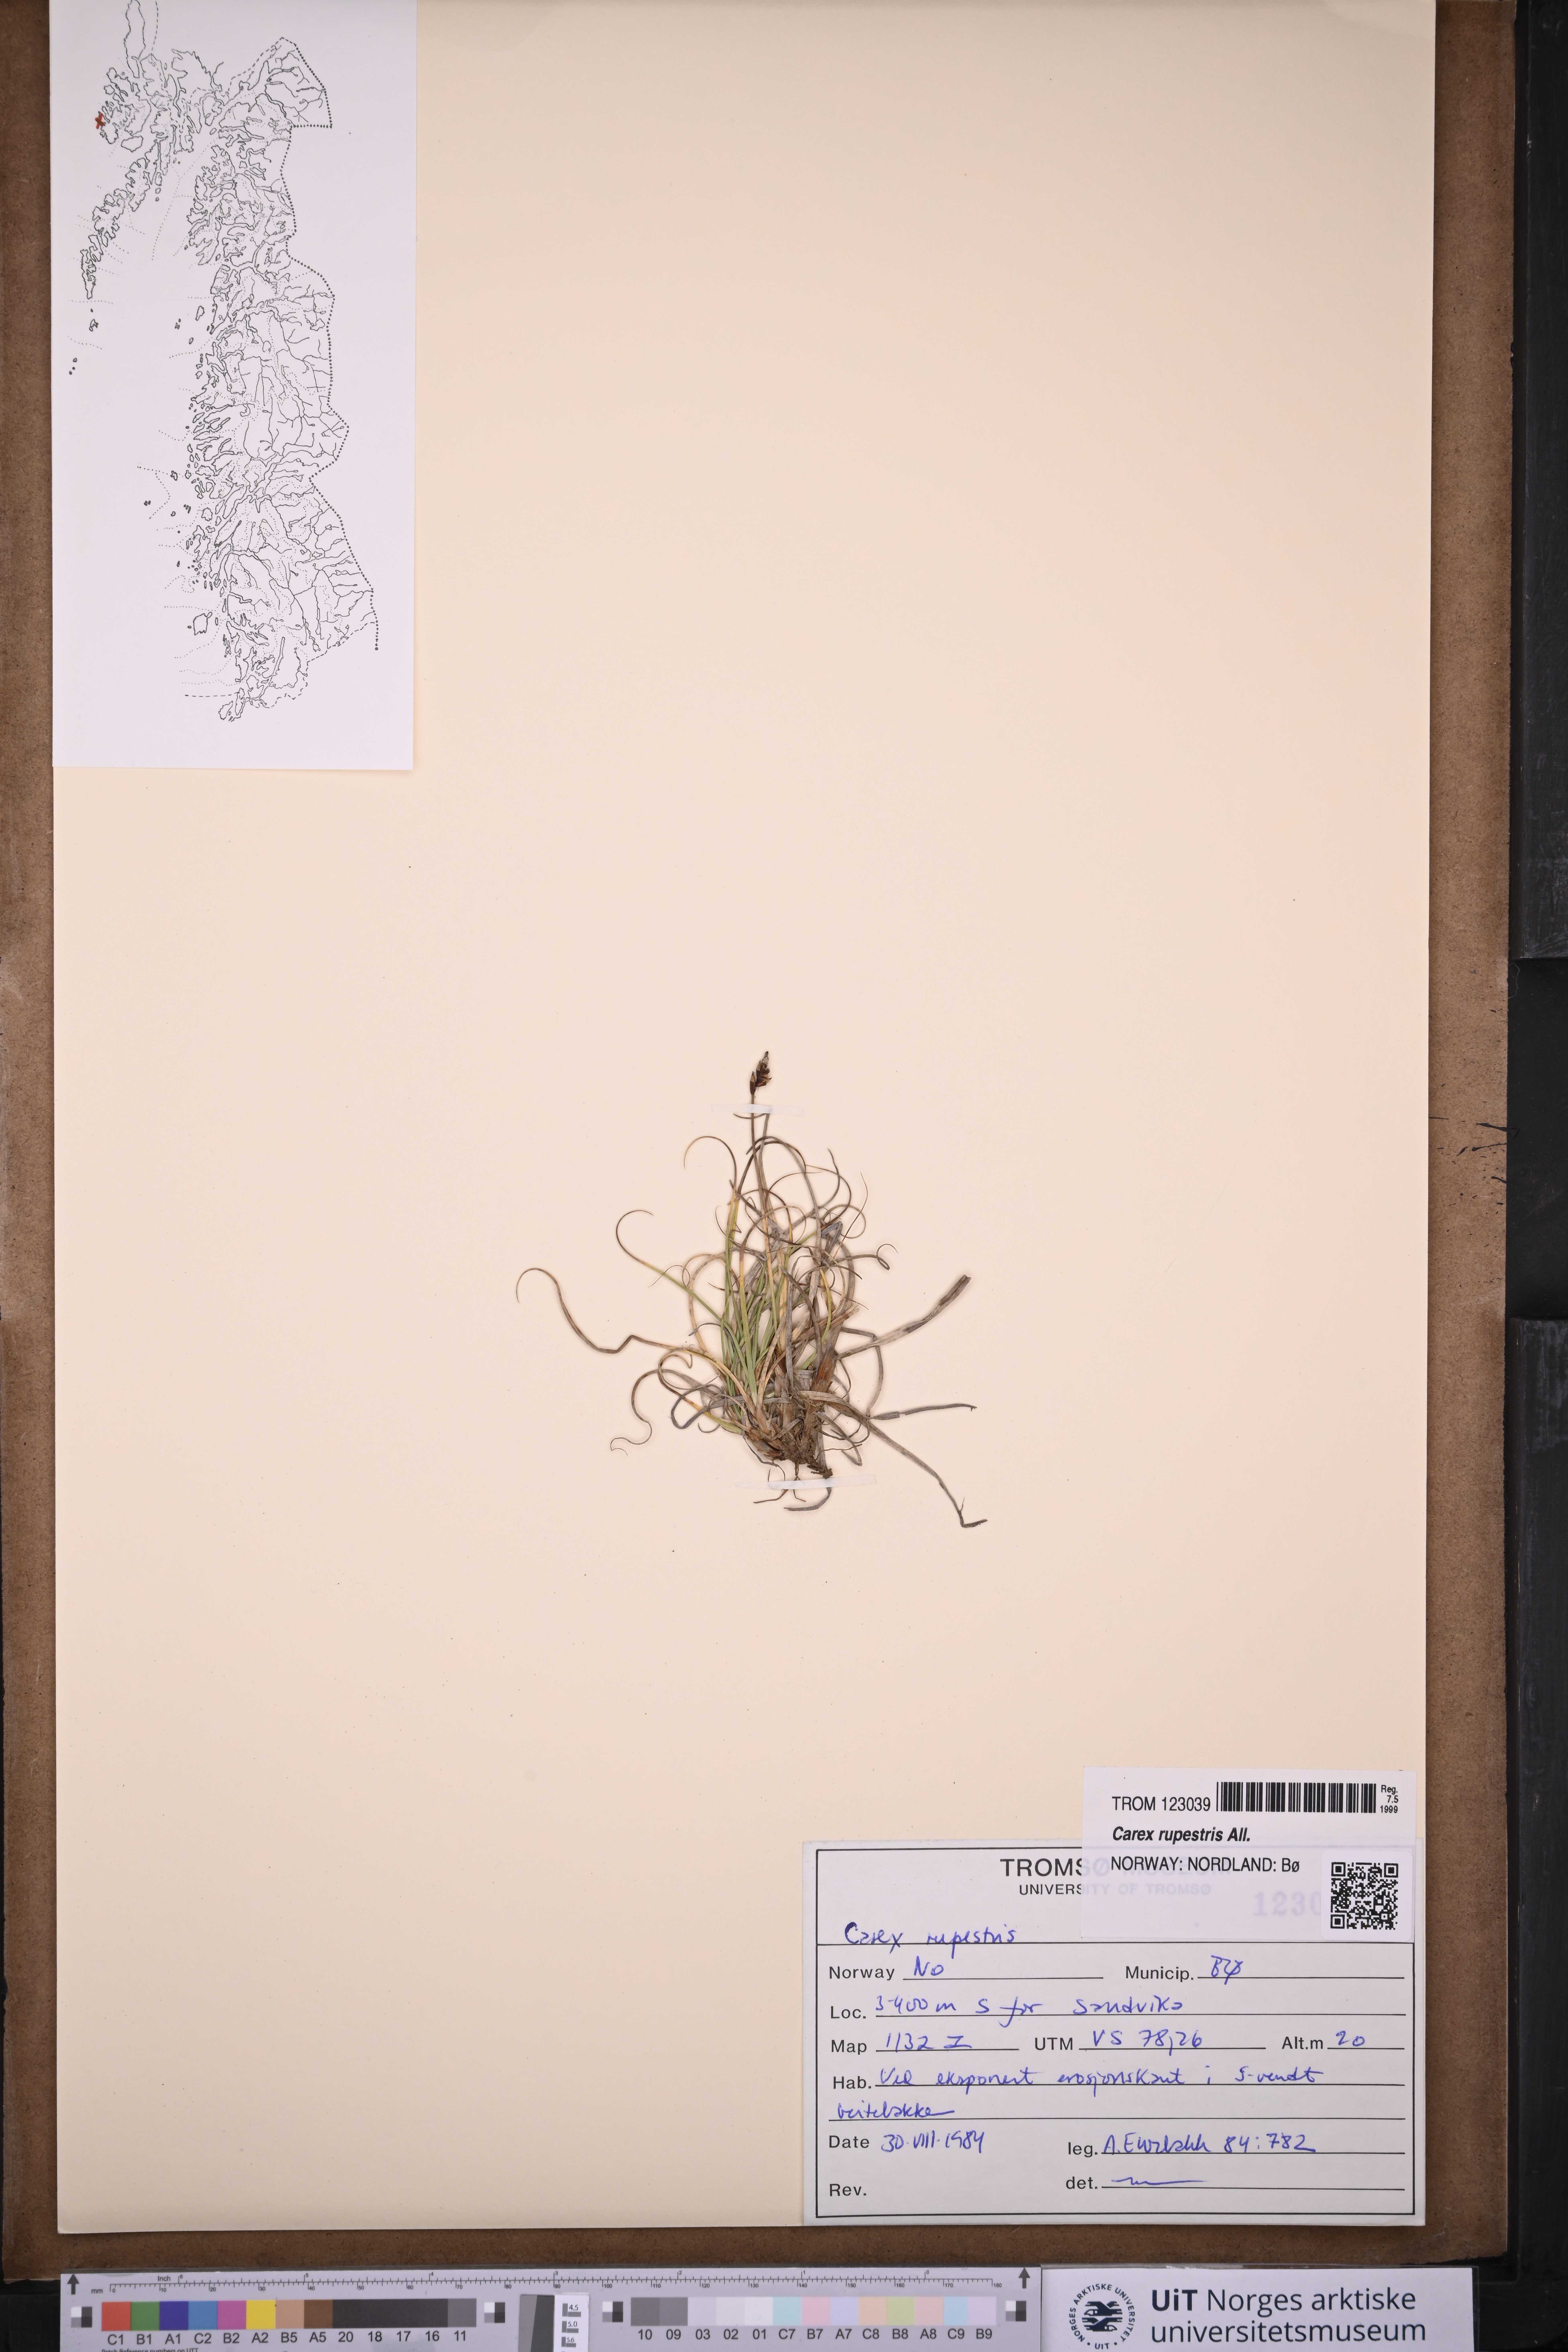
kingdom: Plantae
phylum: Tracheophyta
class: Liliopsida
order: Poales
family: Cyperaceae
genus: Carex
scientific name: Carex rupestris
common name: Rock sedge
